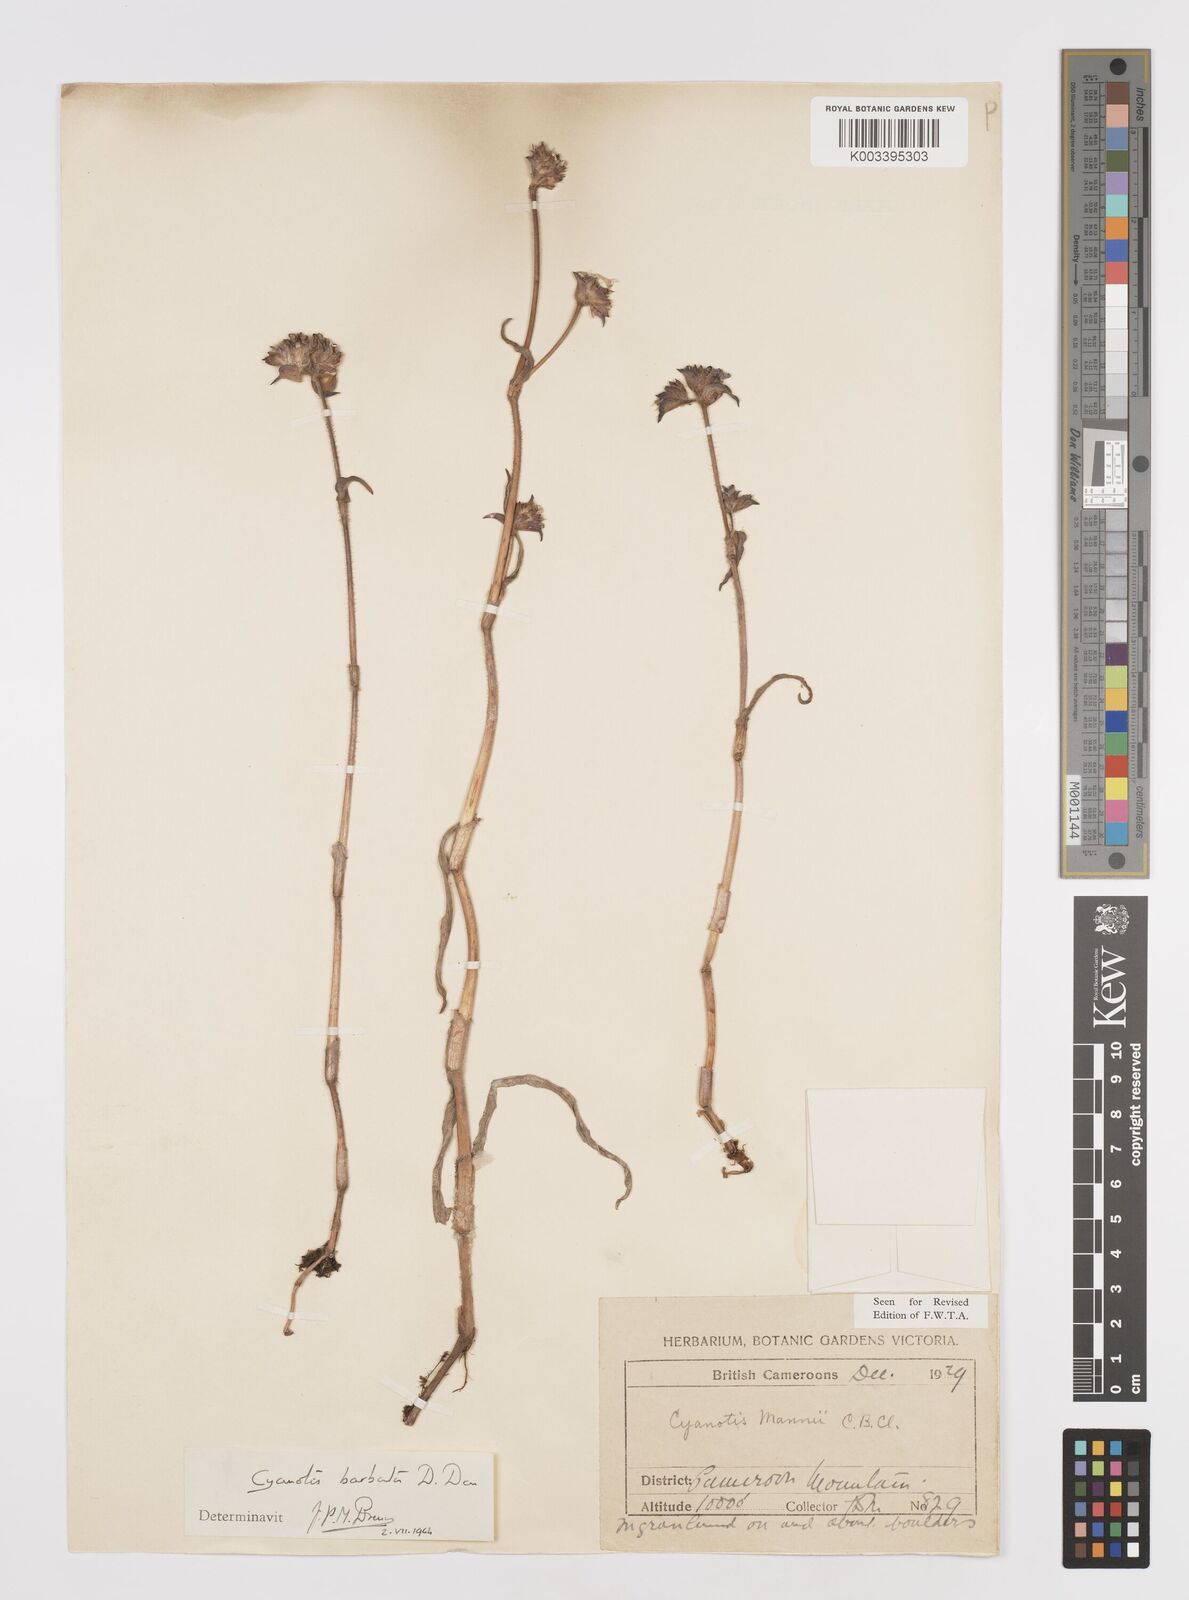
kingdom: Plantae
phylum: Tracheophyta
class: Liliopsida
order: Commelinales
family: Commelinaceae
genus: Cyanotis
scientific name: Cyanotis vaga
